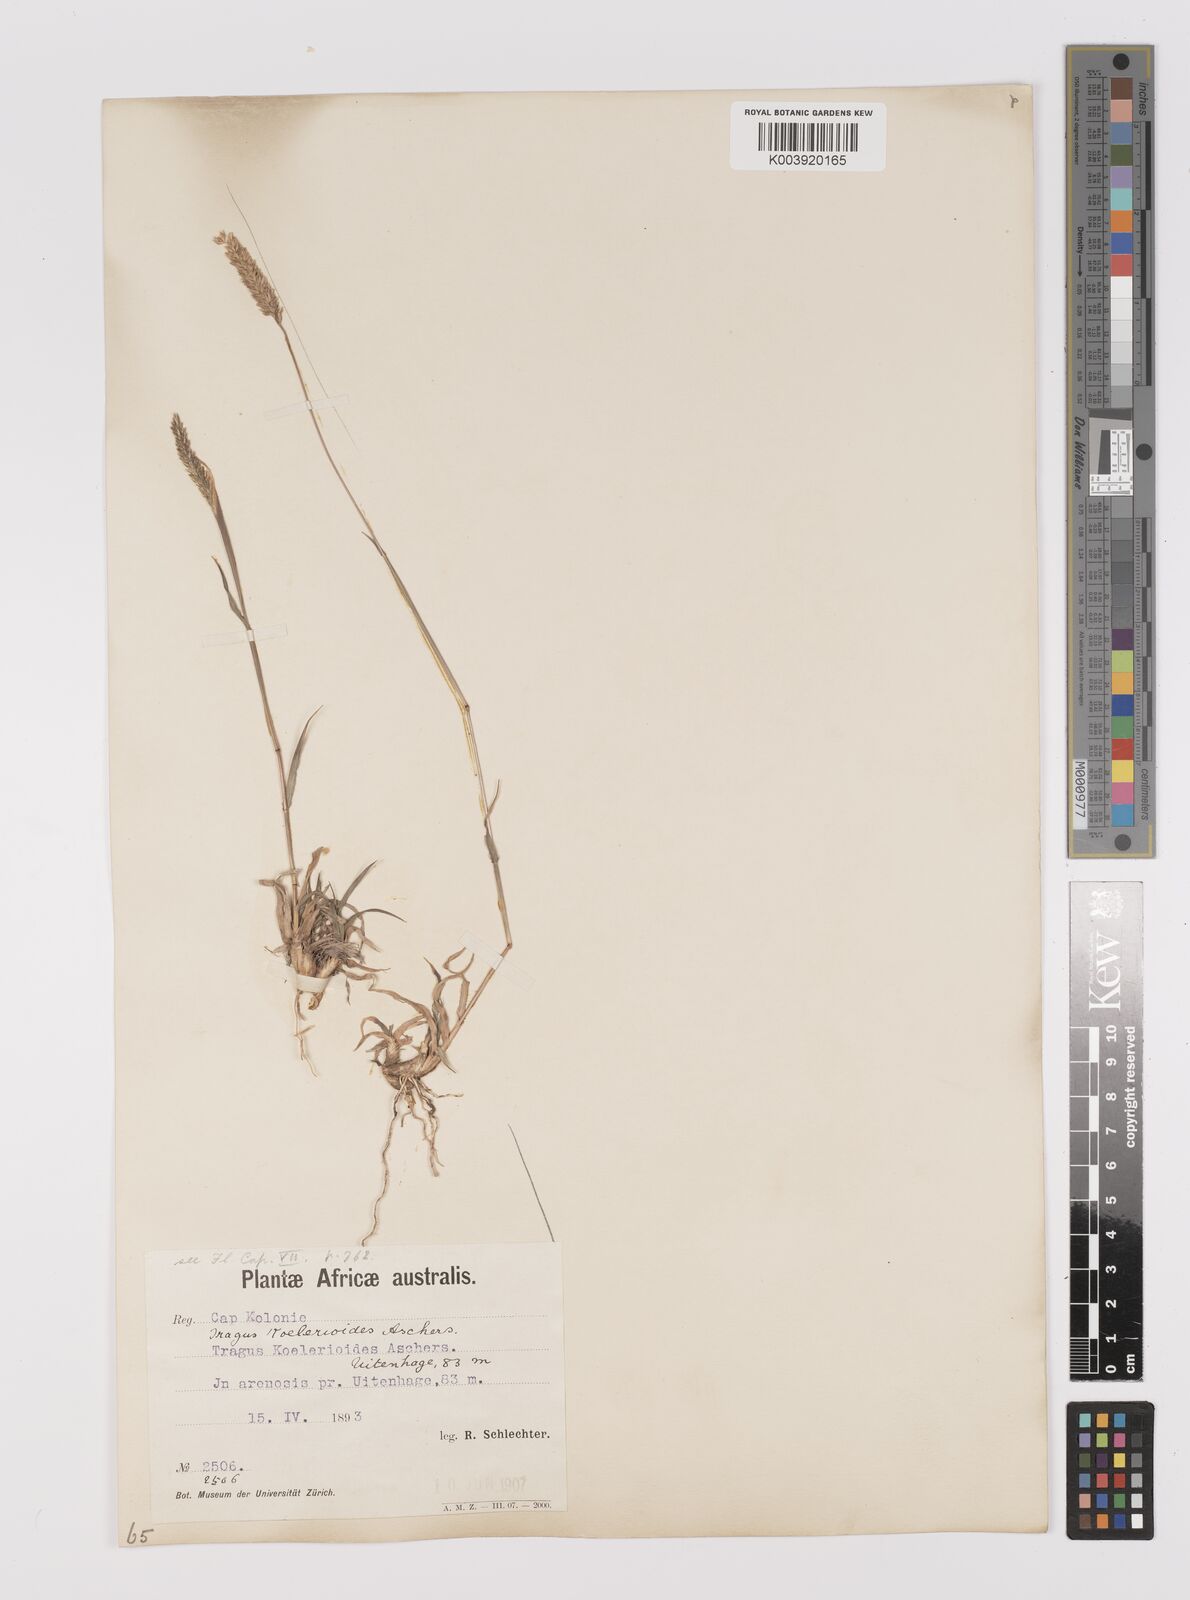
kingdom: Plantae
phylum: Tracheophyta
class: Liliopsida
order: Poales
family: Poaceae
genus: Tragus
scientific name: Tragus koelerioides
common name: Creeping carrot-seed grass
